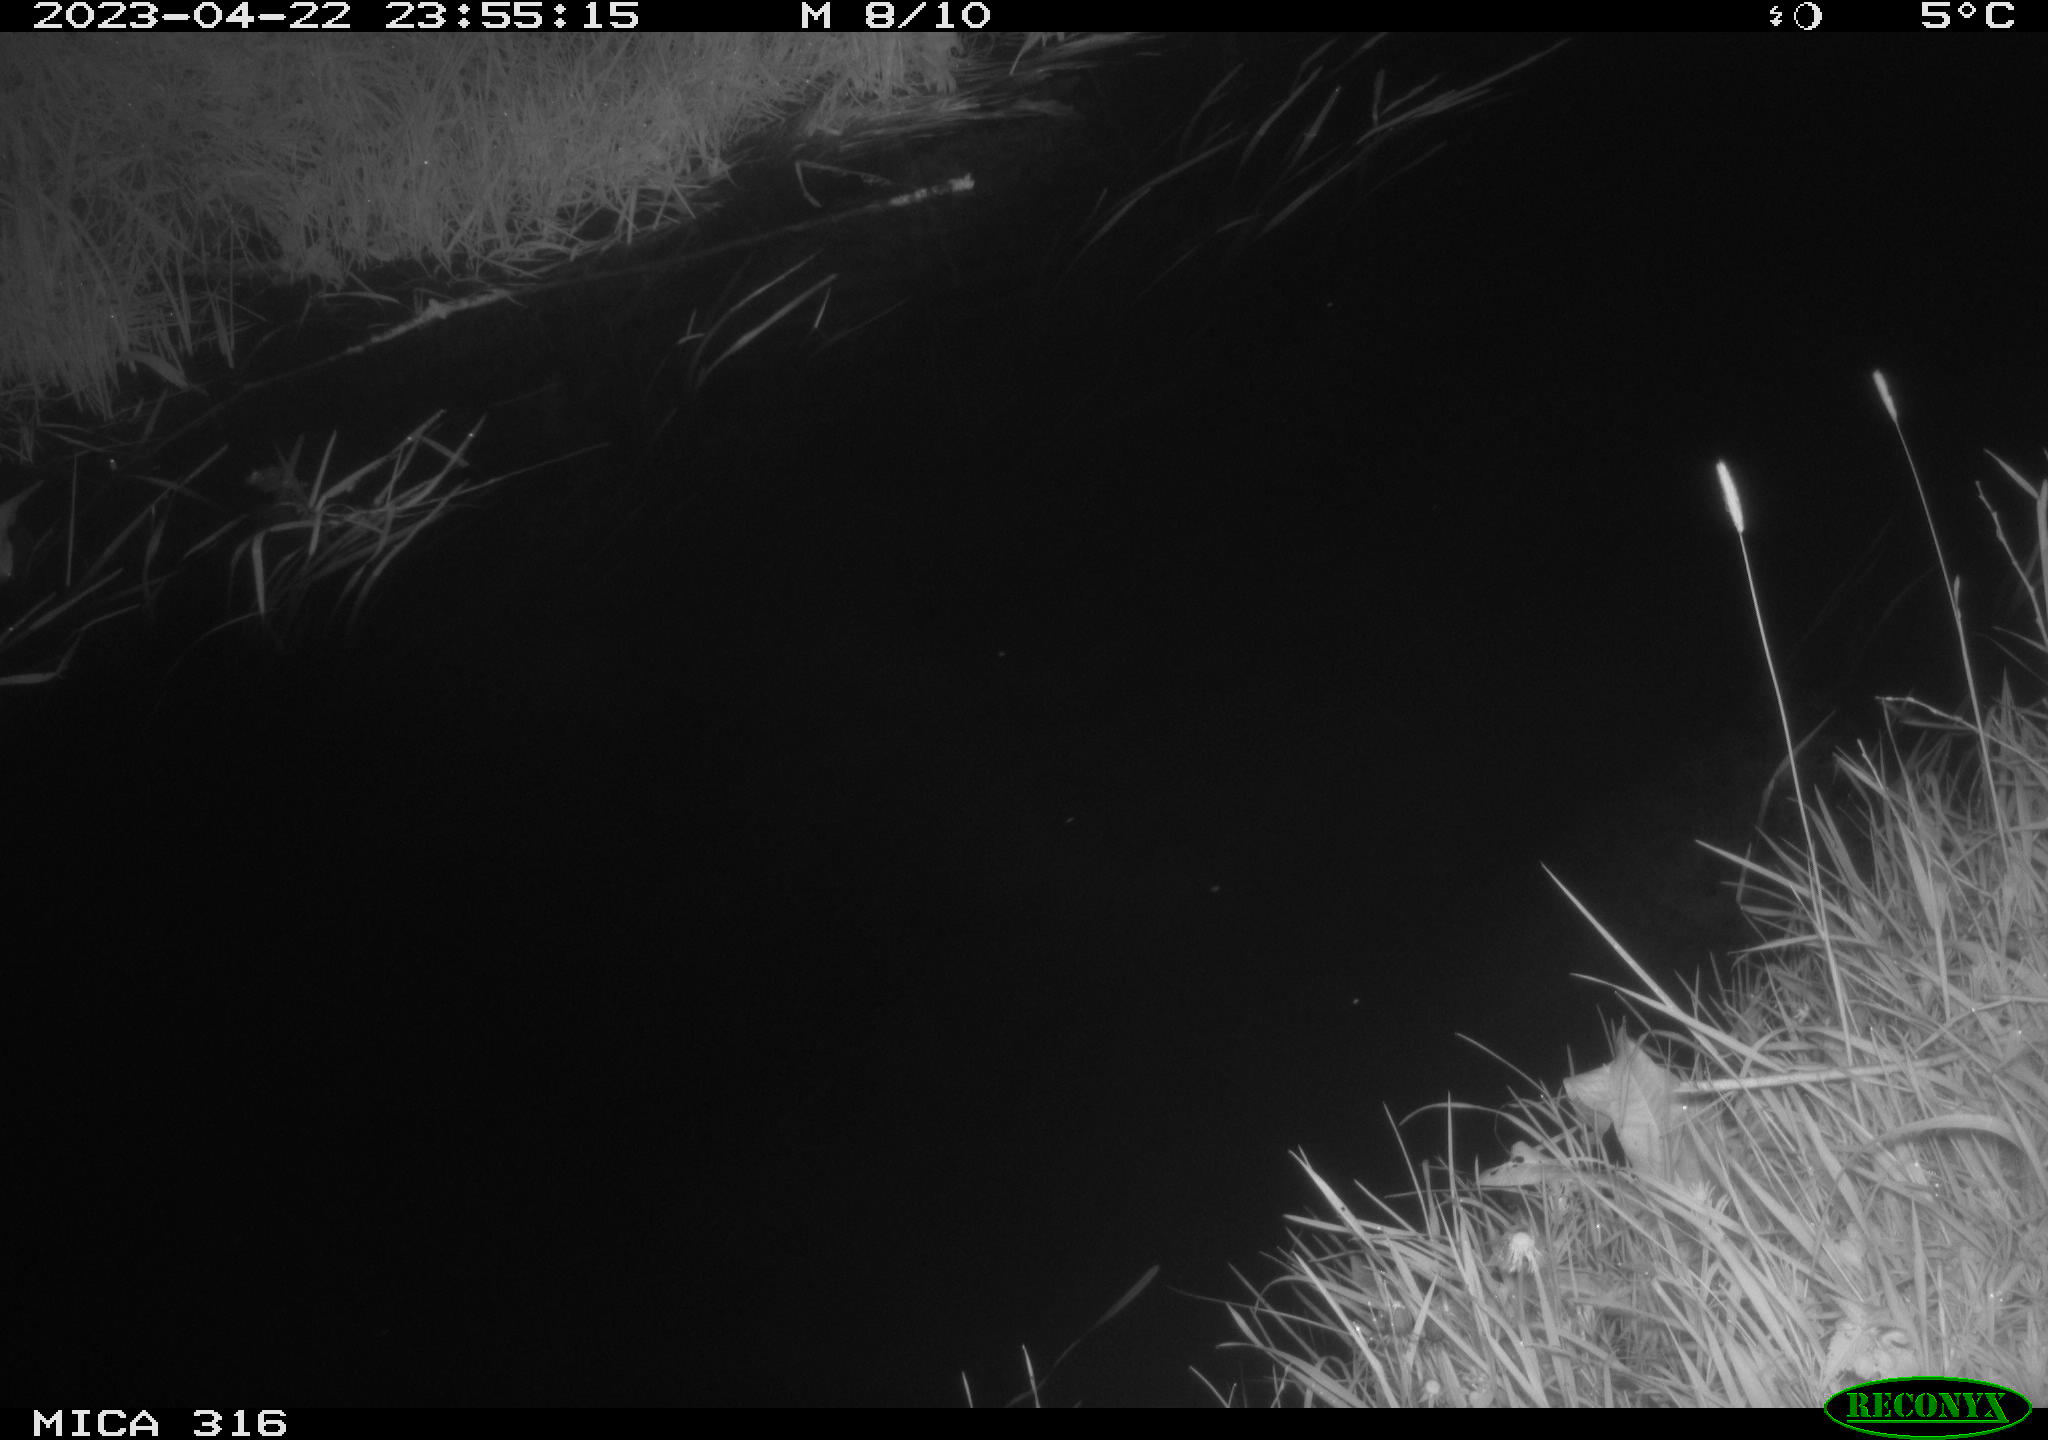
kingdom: Animalia
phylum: Chordata
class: Aves
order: Anseriformes
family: Anatidae
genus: Anas
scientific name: Anas
